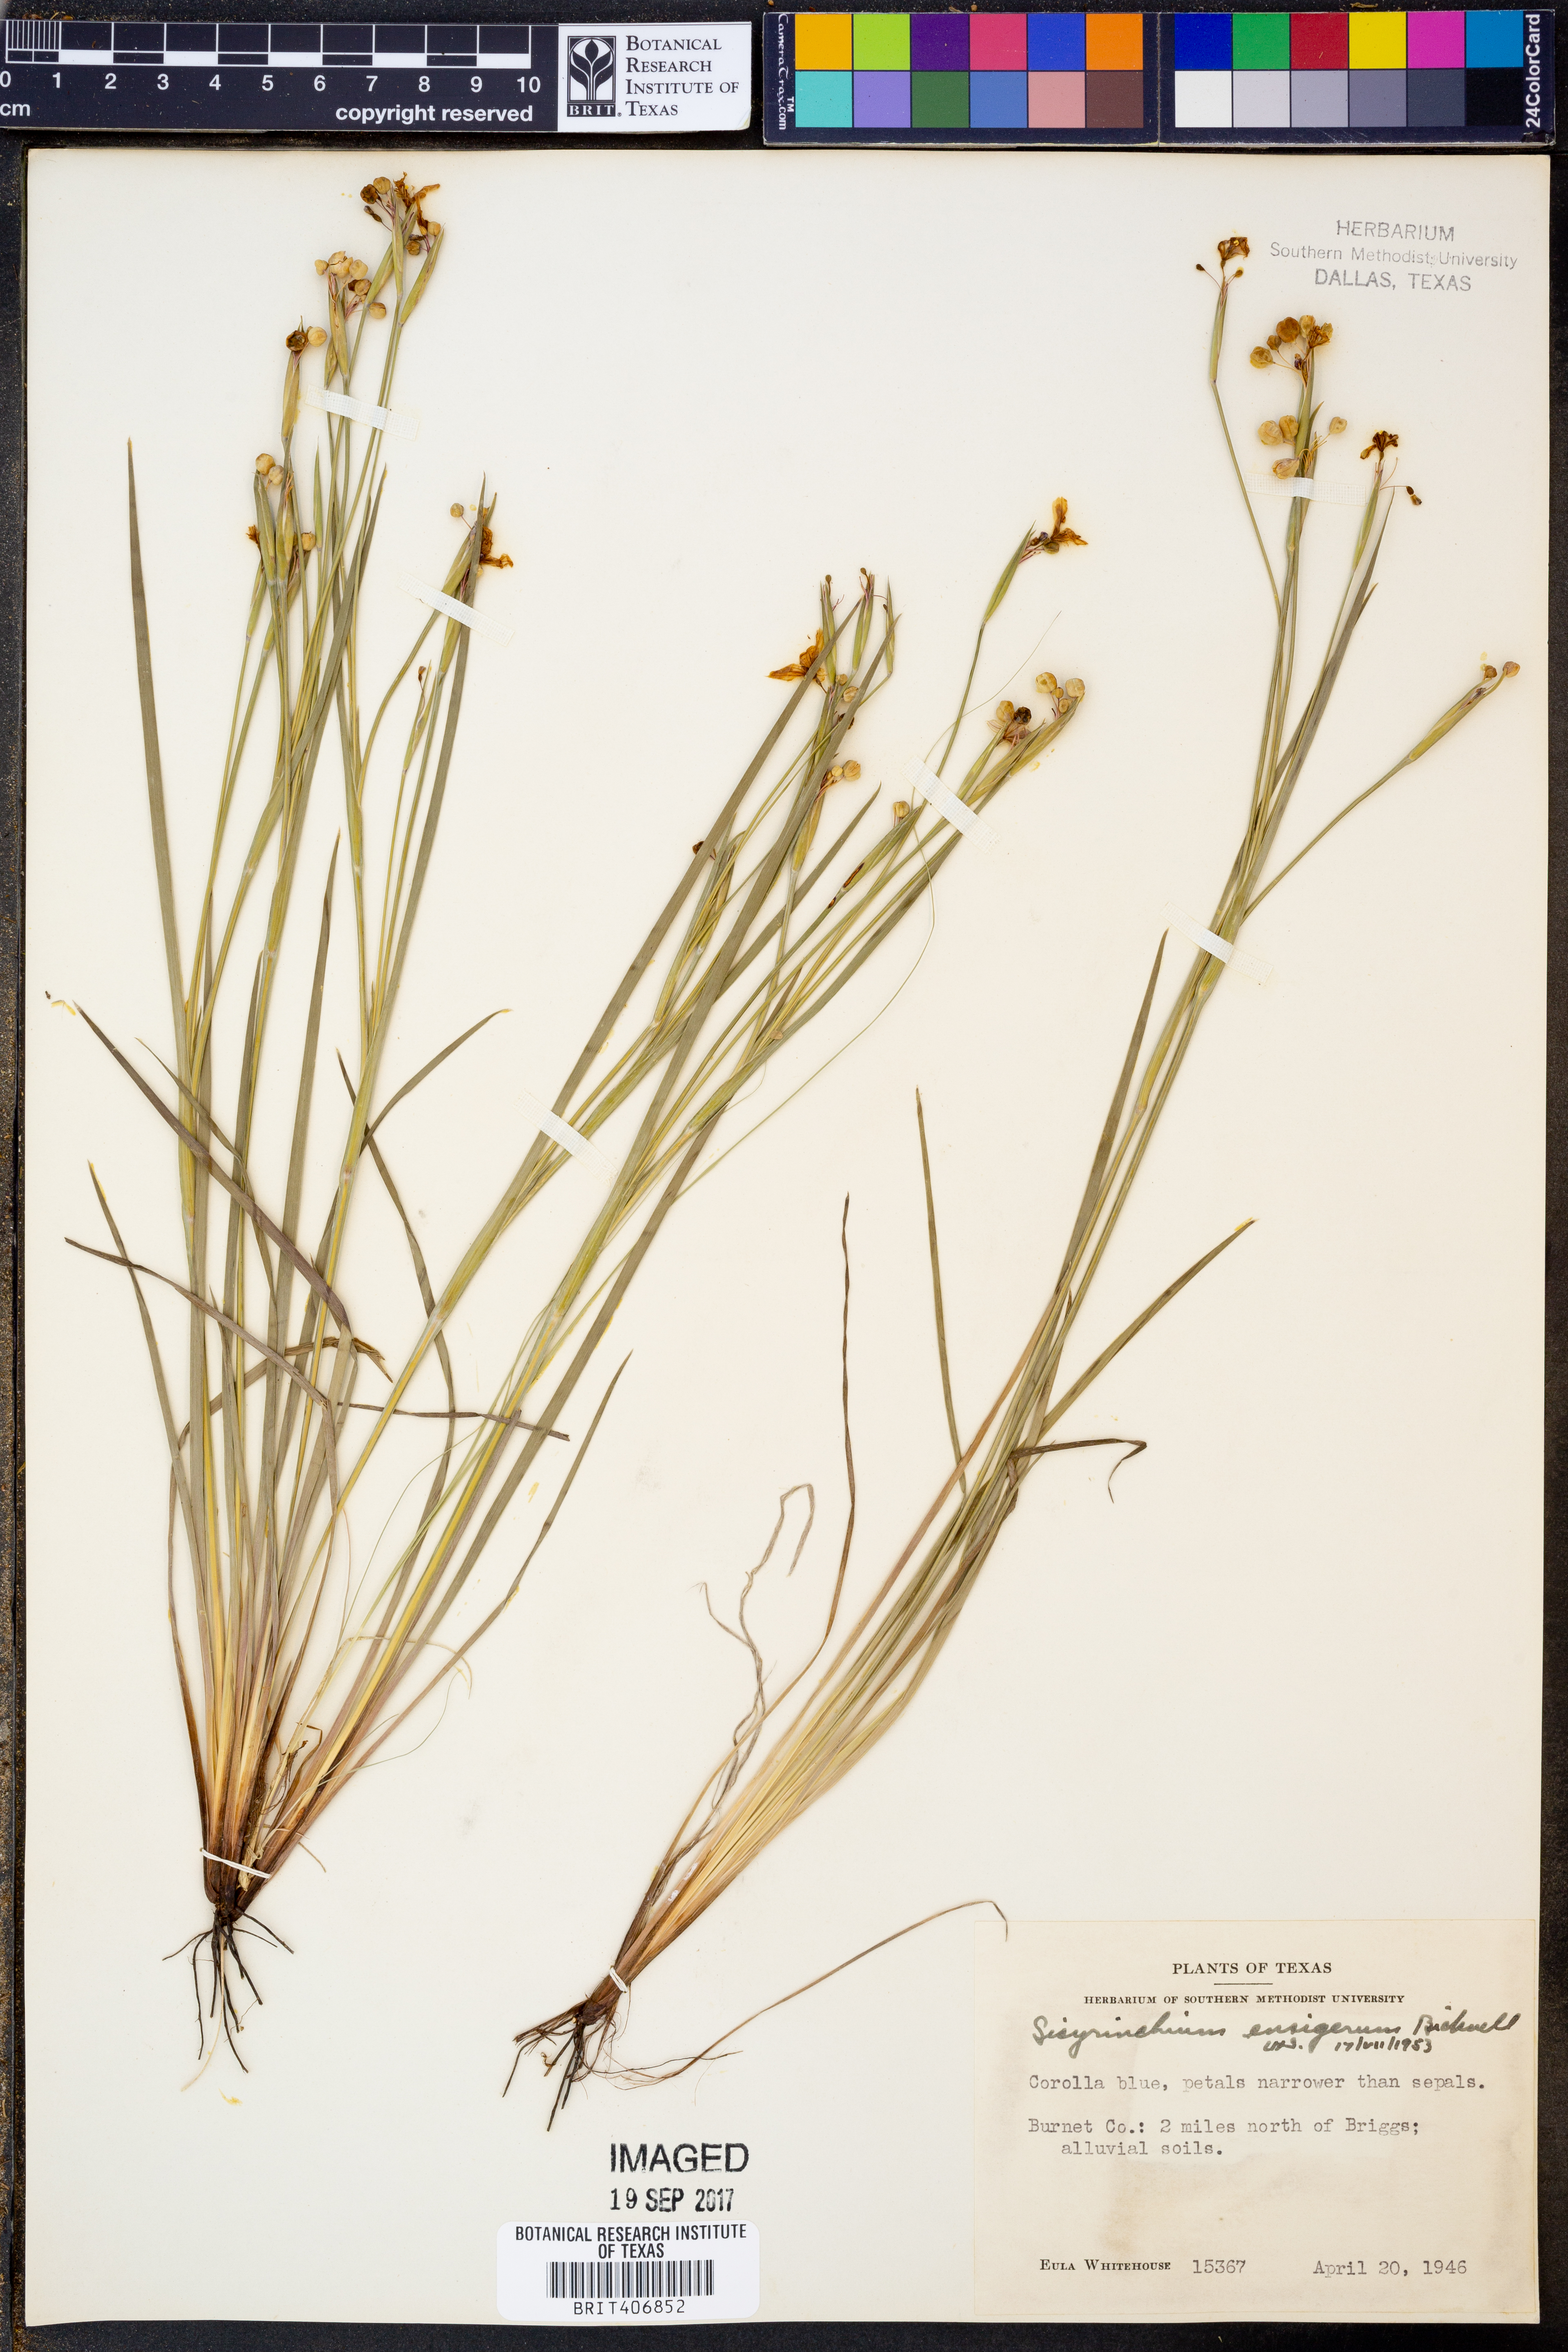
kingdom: Plantae
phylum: Tracheophyta
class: Liliopsida
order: Asparagales
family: Iridaceae
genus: Sisyrinchium
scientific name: Sisyrinchium ensigerum
